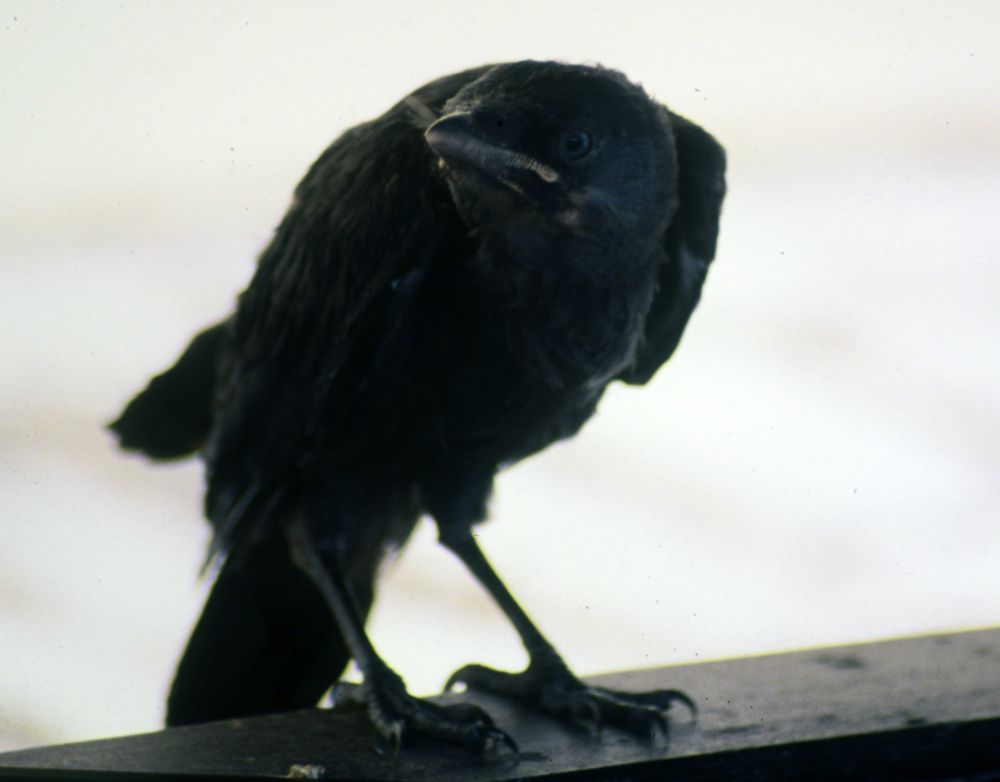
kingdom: Animalia
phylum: Chordata
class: Aves
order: Passeriformes
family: Corvidae
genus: Coloeus
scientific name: Coloeus monedula
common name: Western jackdaw
